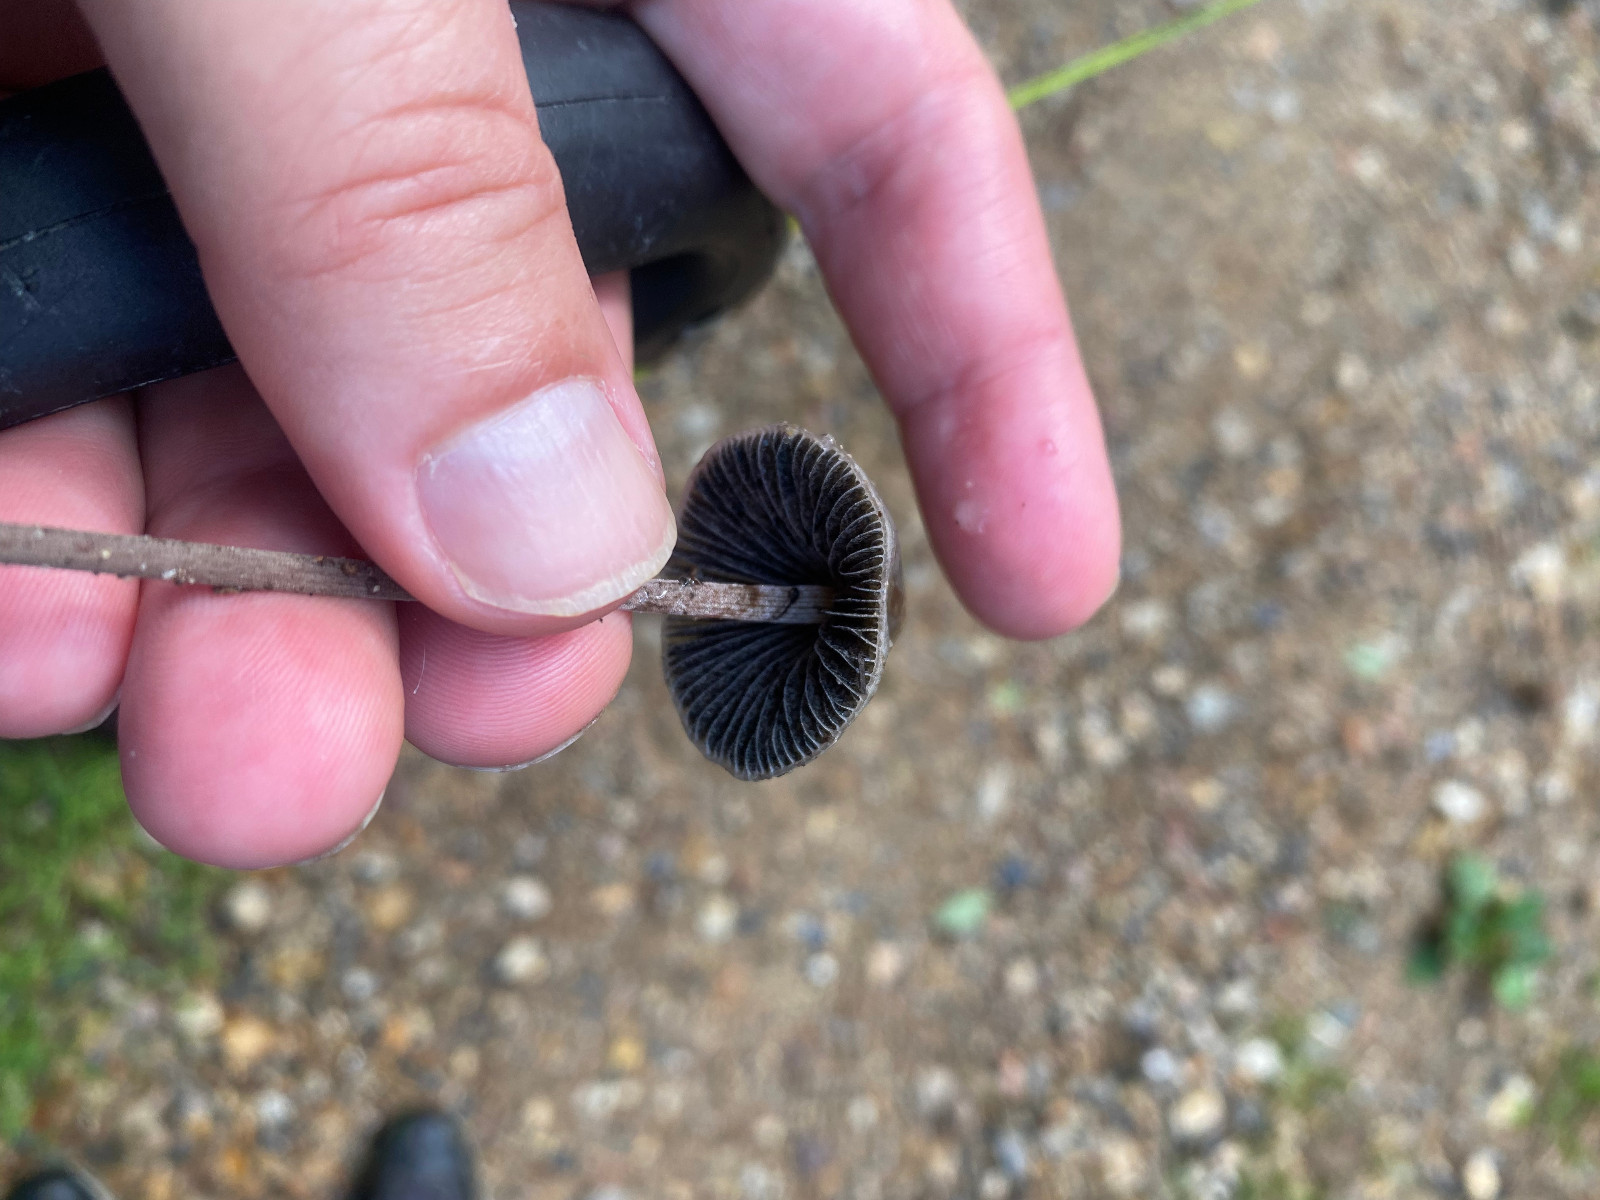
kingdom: Fungi
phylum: Basidiomycota
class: Agaricomycetes
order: Agaricales
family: Bolbitiaceae
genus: Panaeolus
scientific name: Panaeolus papilionaceus
